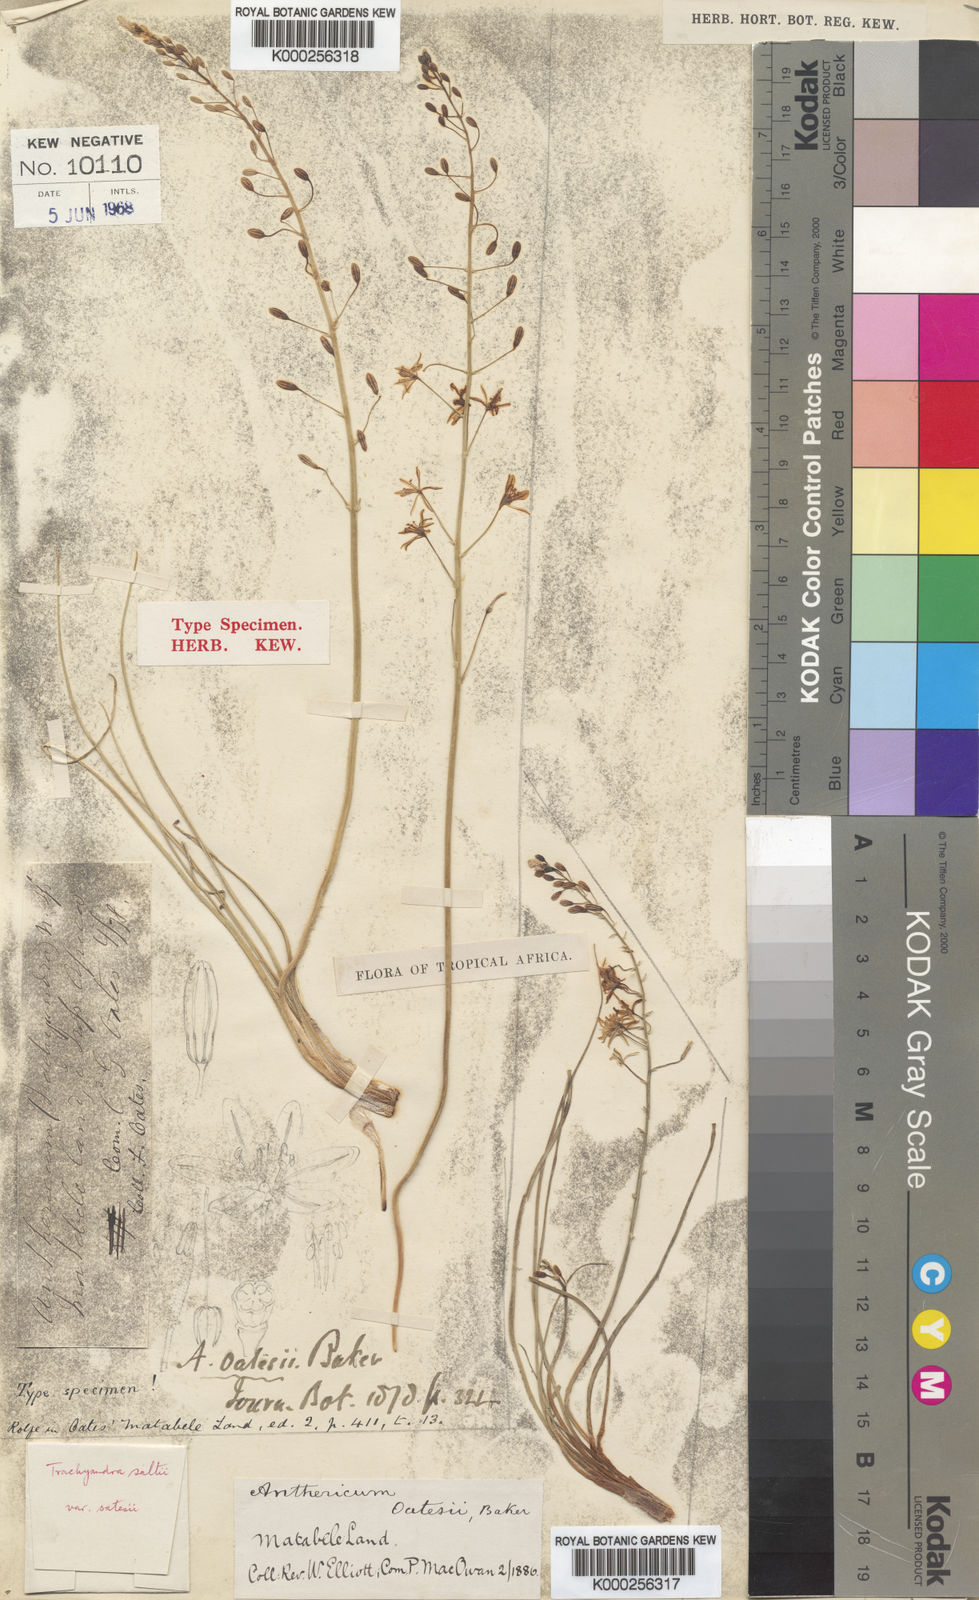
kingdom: Plantae
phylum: Tracheophyta
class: Liliopsida
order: Asparagales
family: Asphodelaceae
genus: Trachyandra
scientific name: Trachyandra saltii
